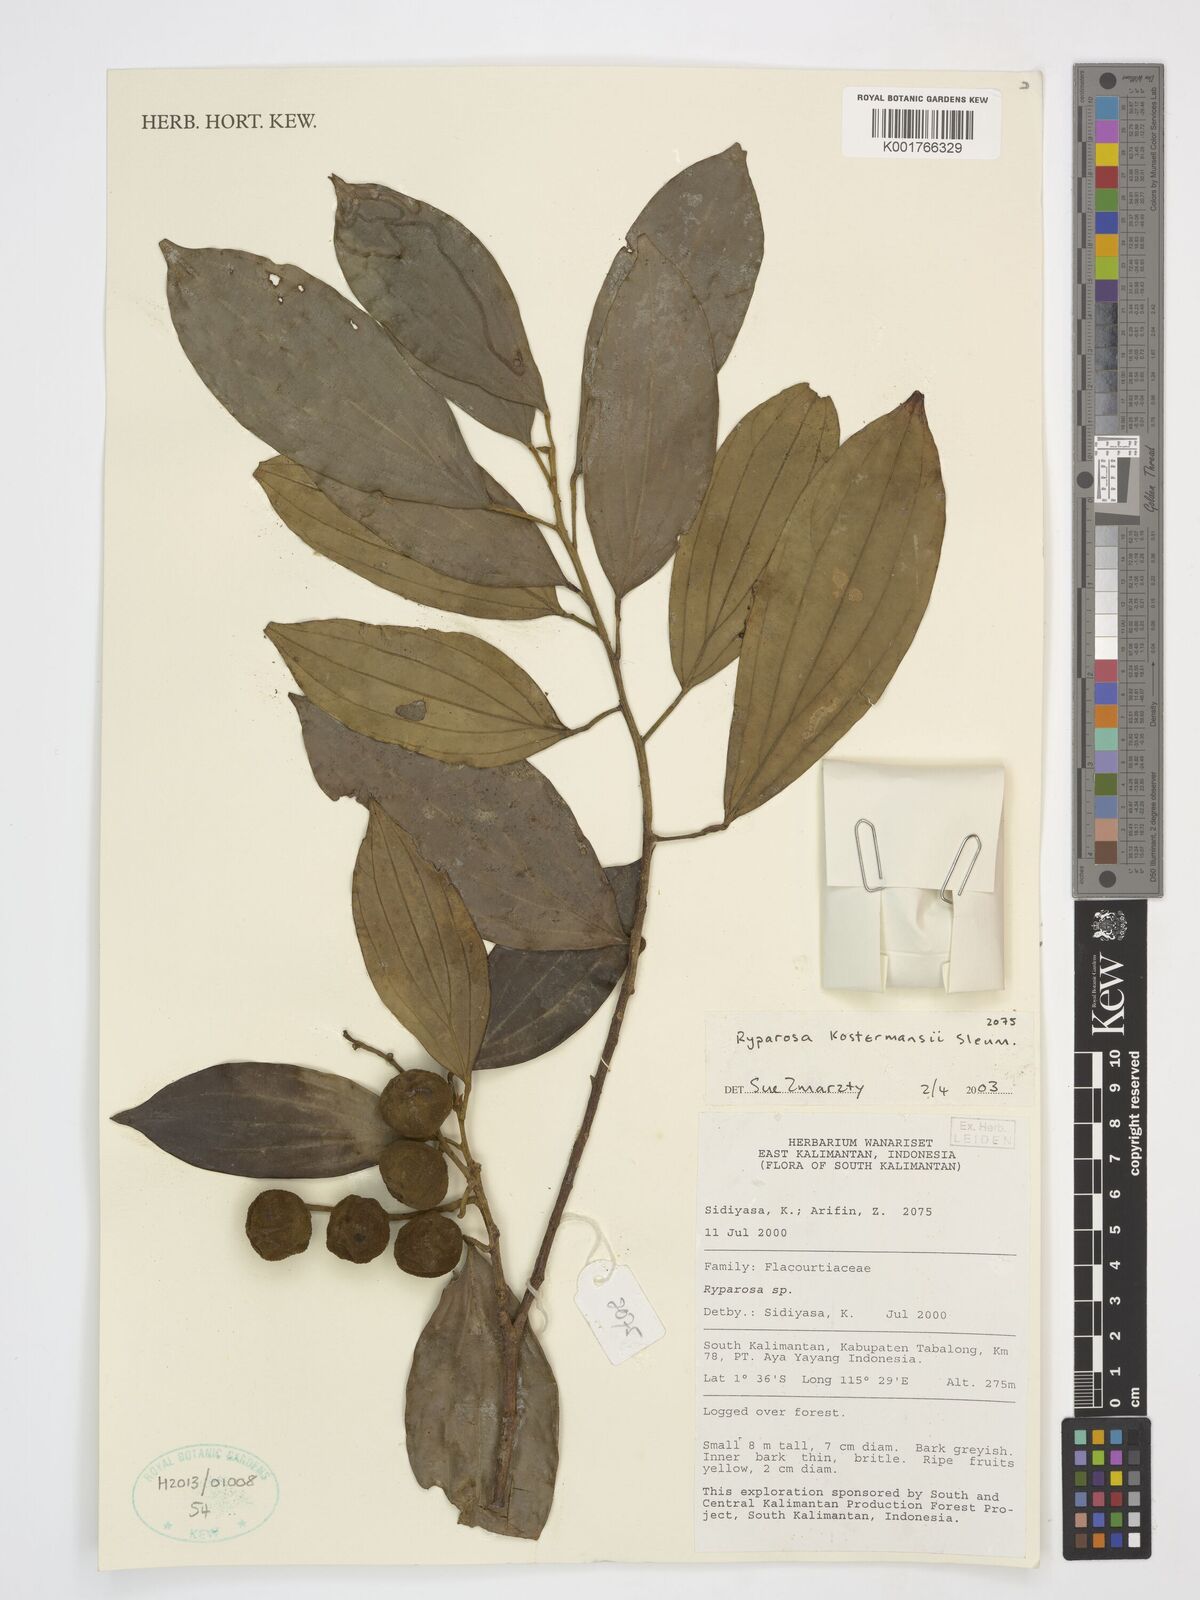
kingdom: Plantae
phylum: Tracheophyta
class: Magnoliopsida
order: Malpighiales
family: Achariaceae
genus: Ryparosa
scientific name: Ryparosa kostermansii
